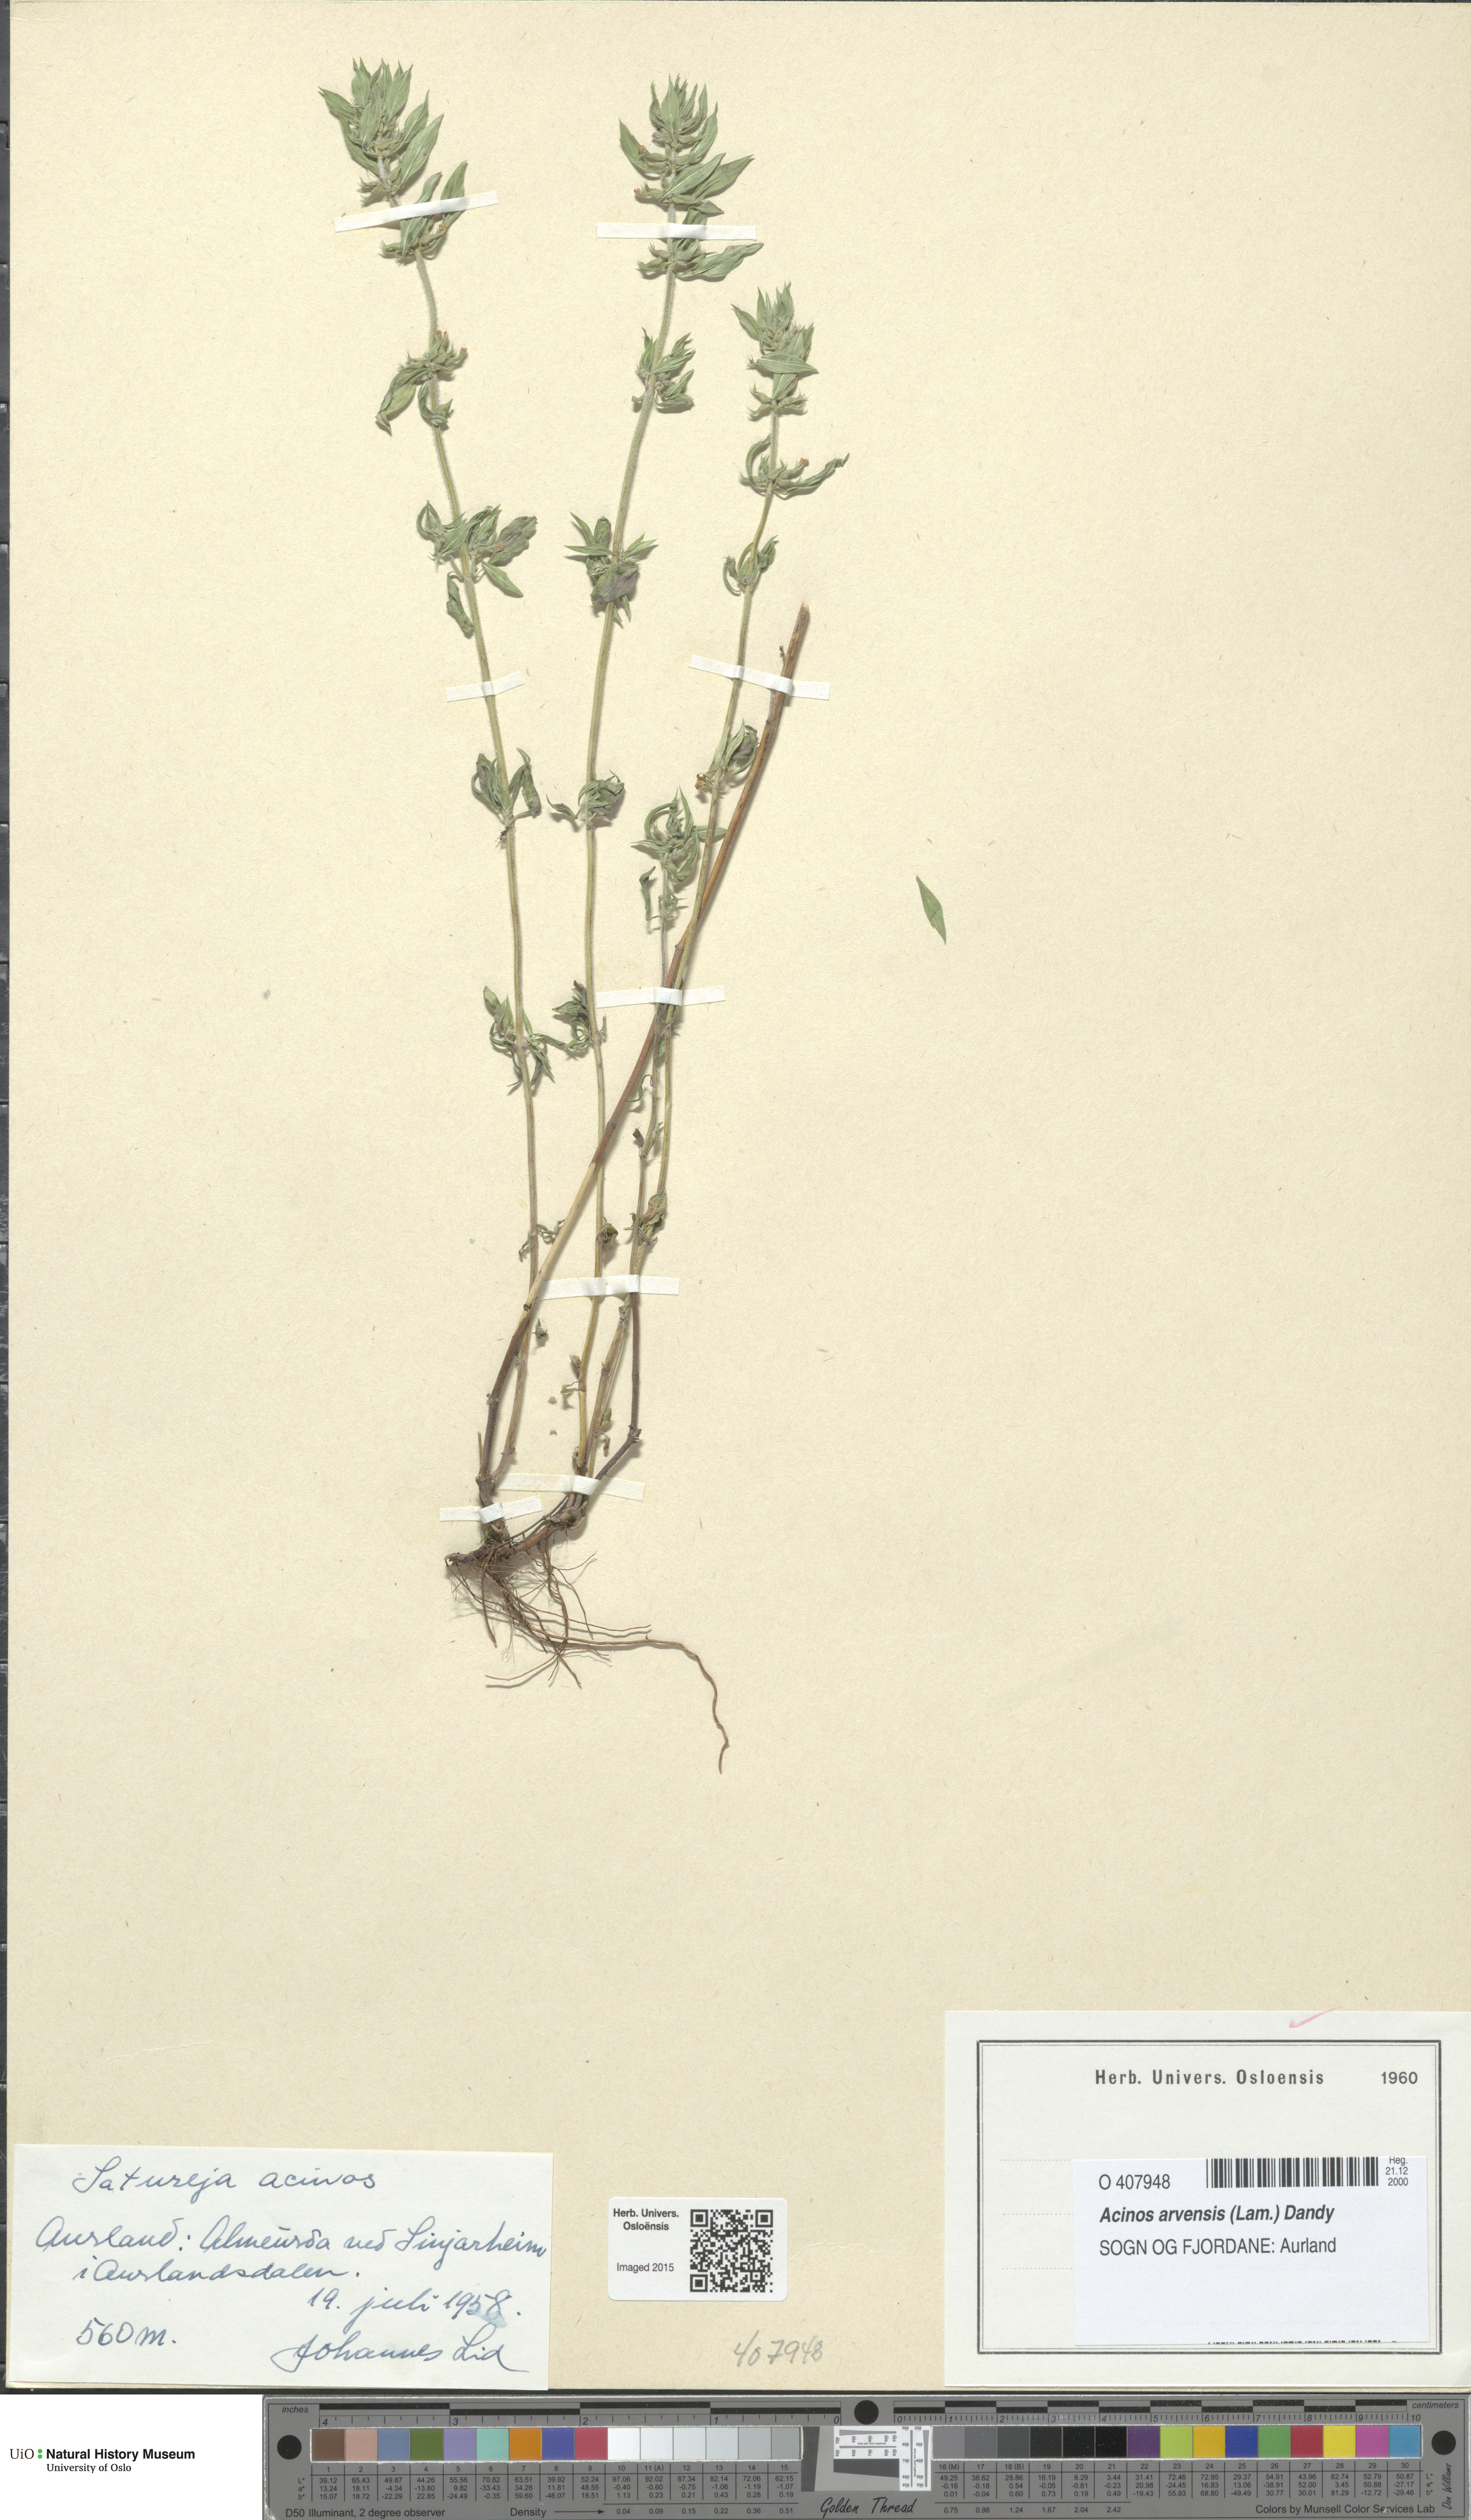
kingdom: Plantae
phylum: Tracheophyta
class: Magnoliopsida
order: Lamiales
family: Lamiaceae
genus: Clinopodium
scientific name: Clinopodium acinos
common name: Basil thyme
